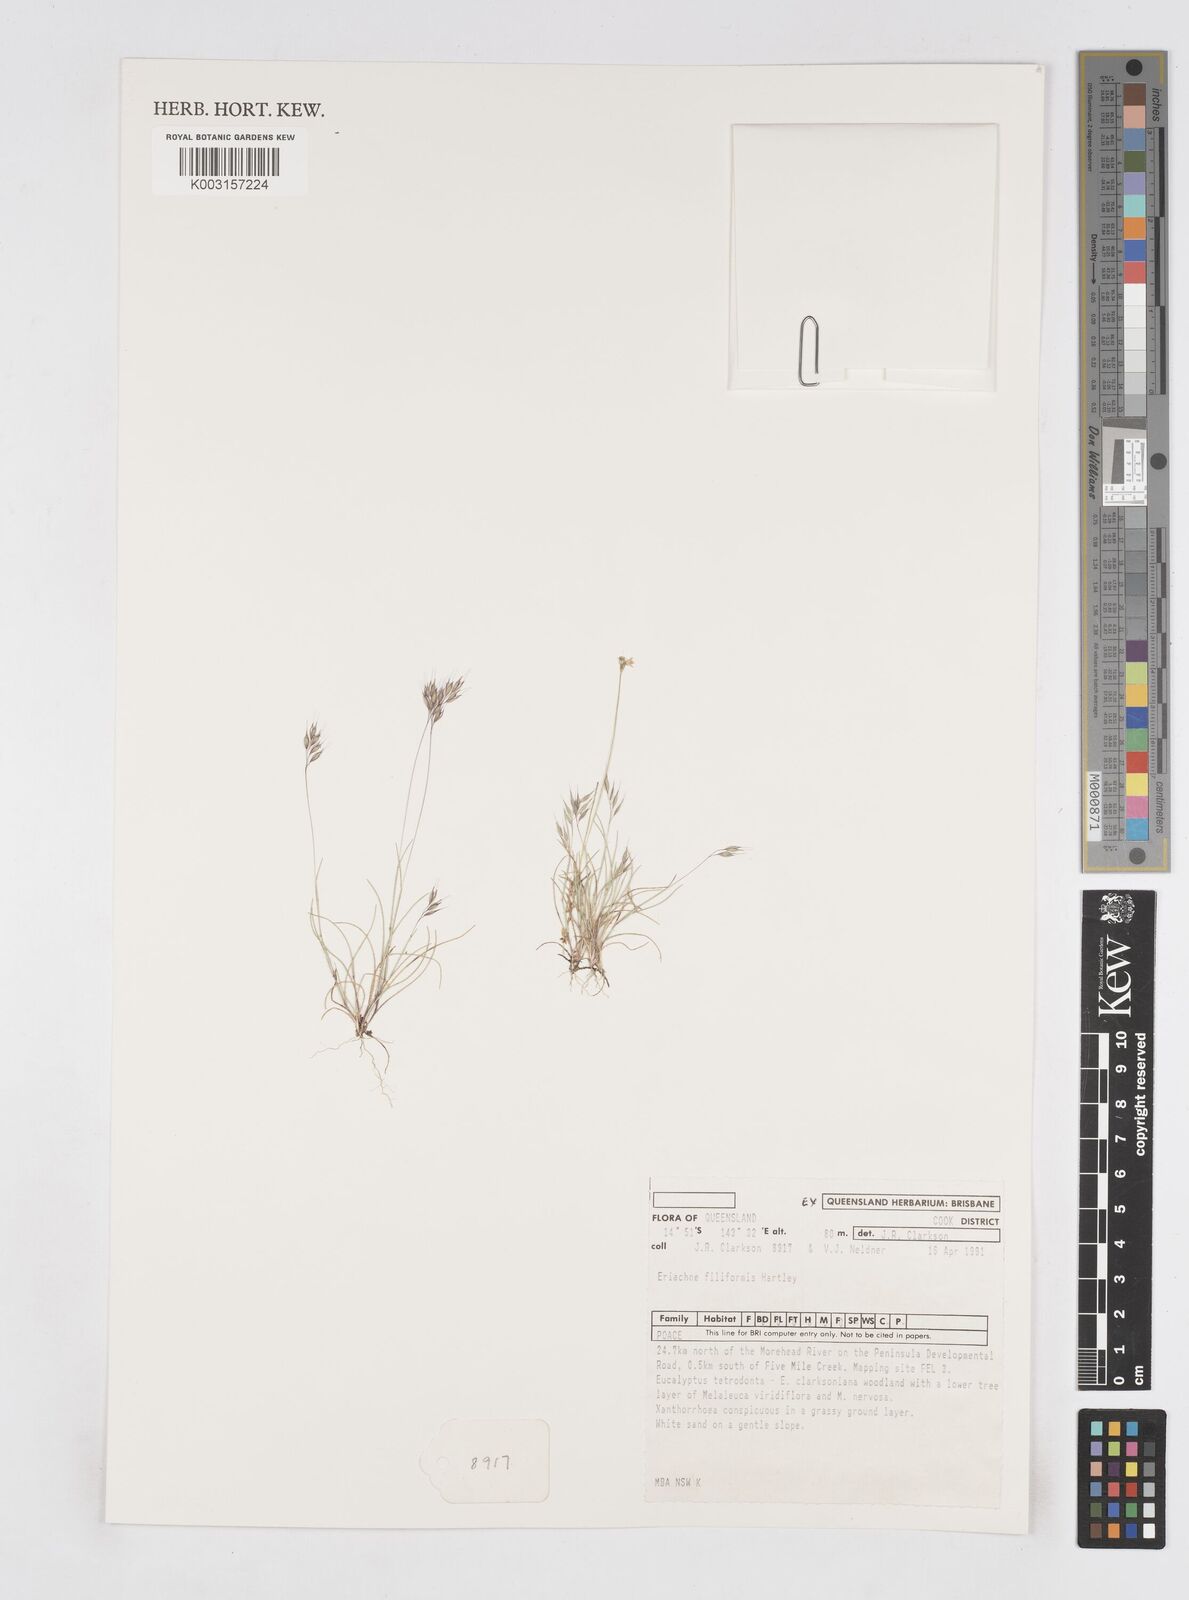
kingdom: Plantae
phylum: Tracheophyta
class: Liliopsida
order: Poales
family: Poaceae
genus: Eriachne
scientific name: Eriachne filiformis
